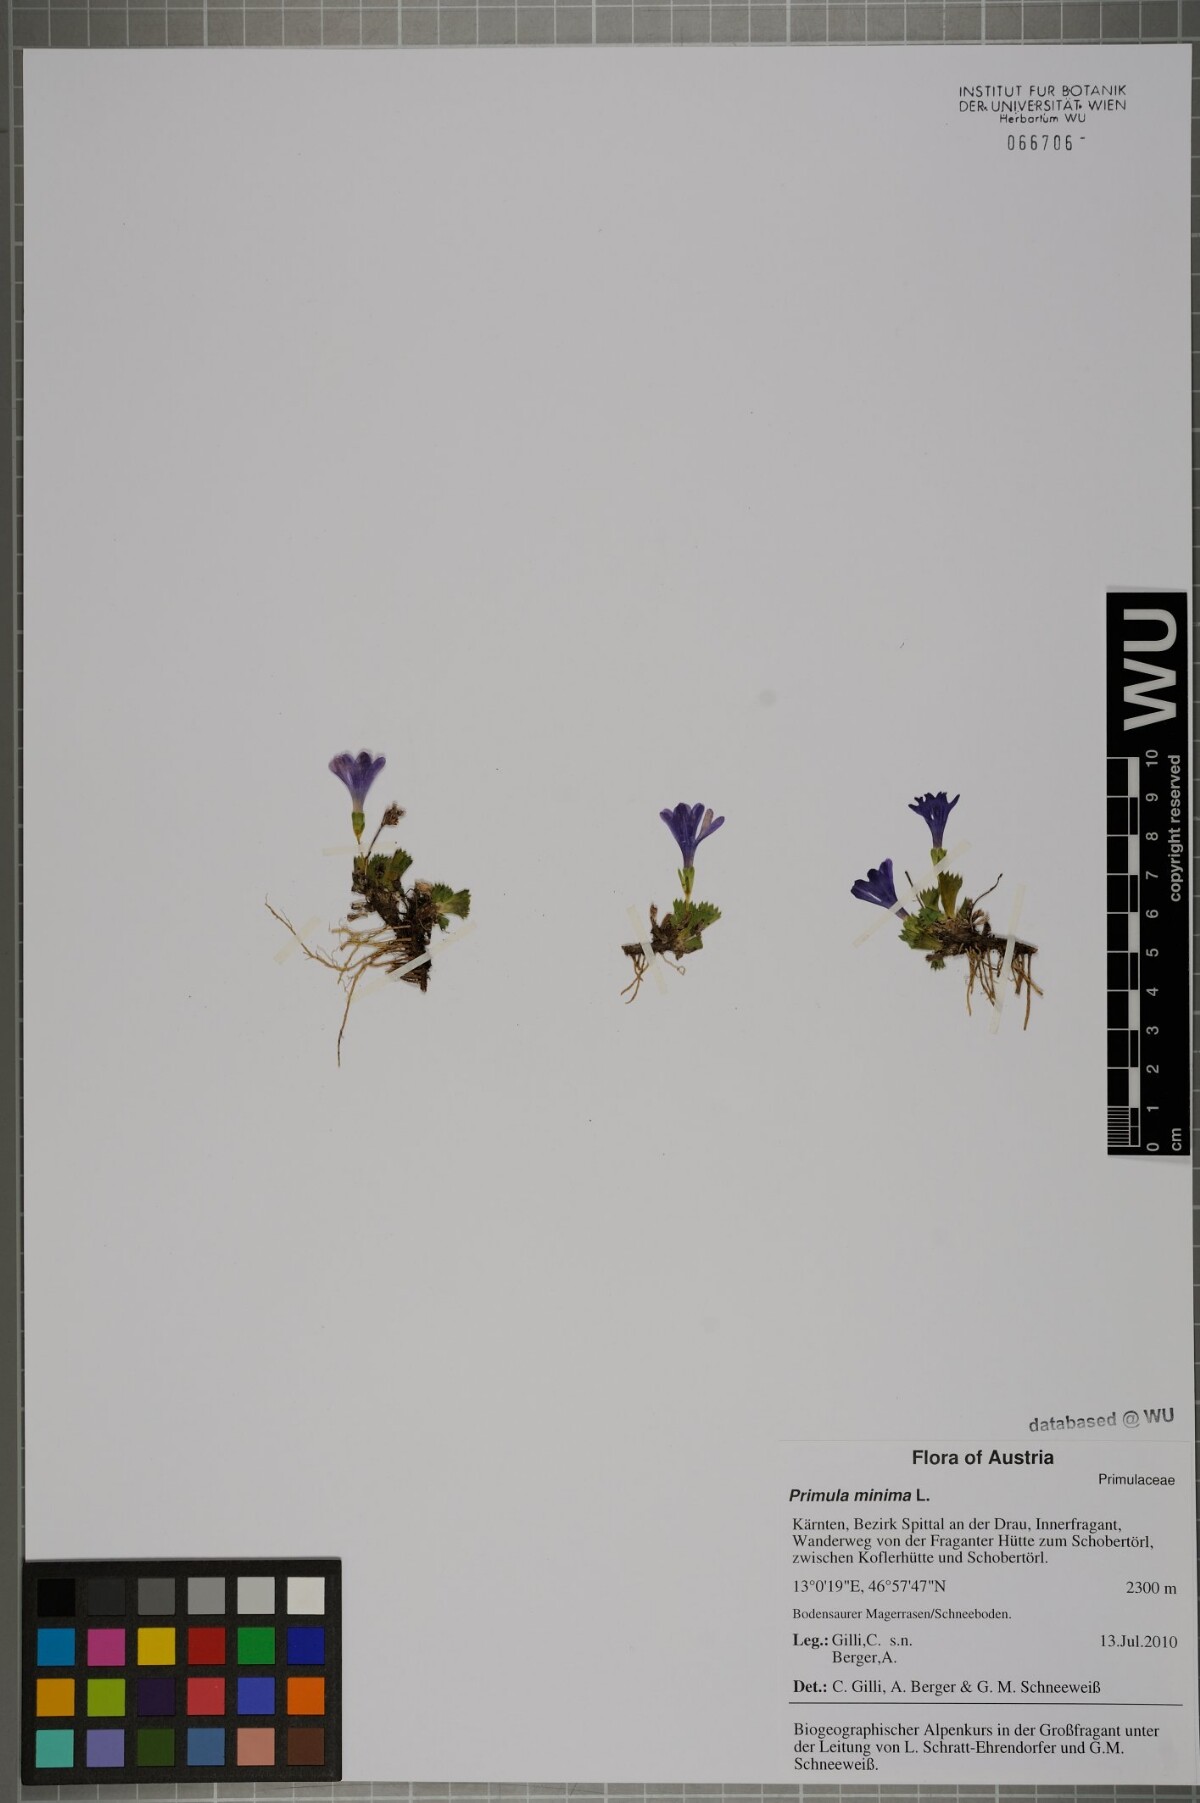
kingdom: Plantae
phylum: Tracheophyta
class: Magnoliopsida
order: Ericales
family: Primulaceae
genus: Primula
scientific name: Primula minima
